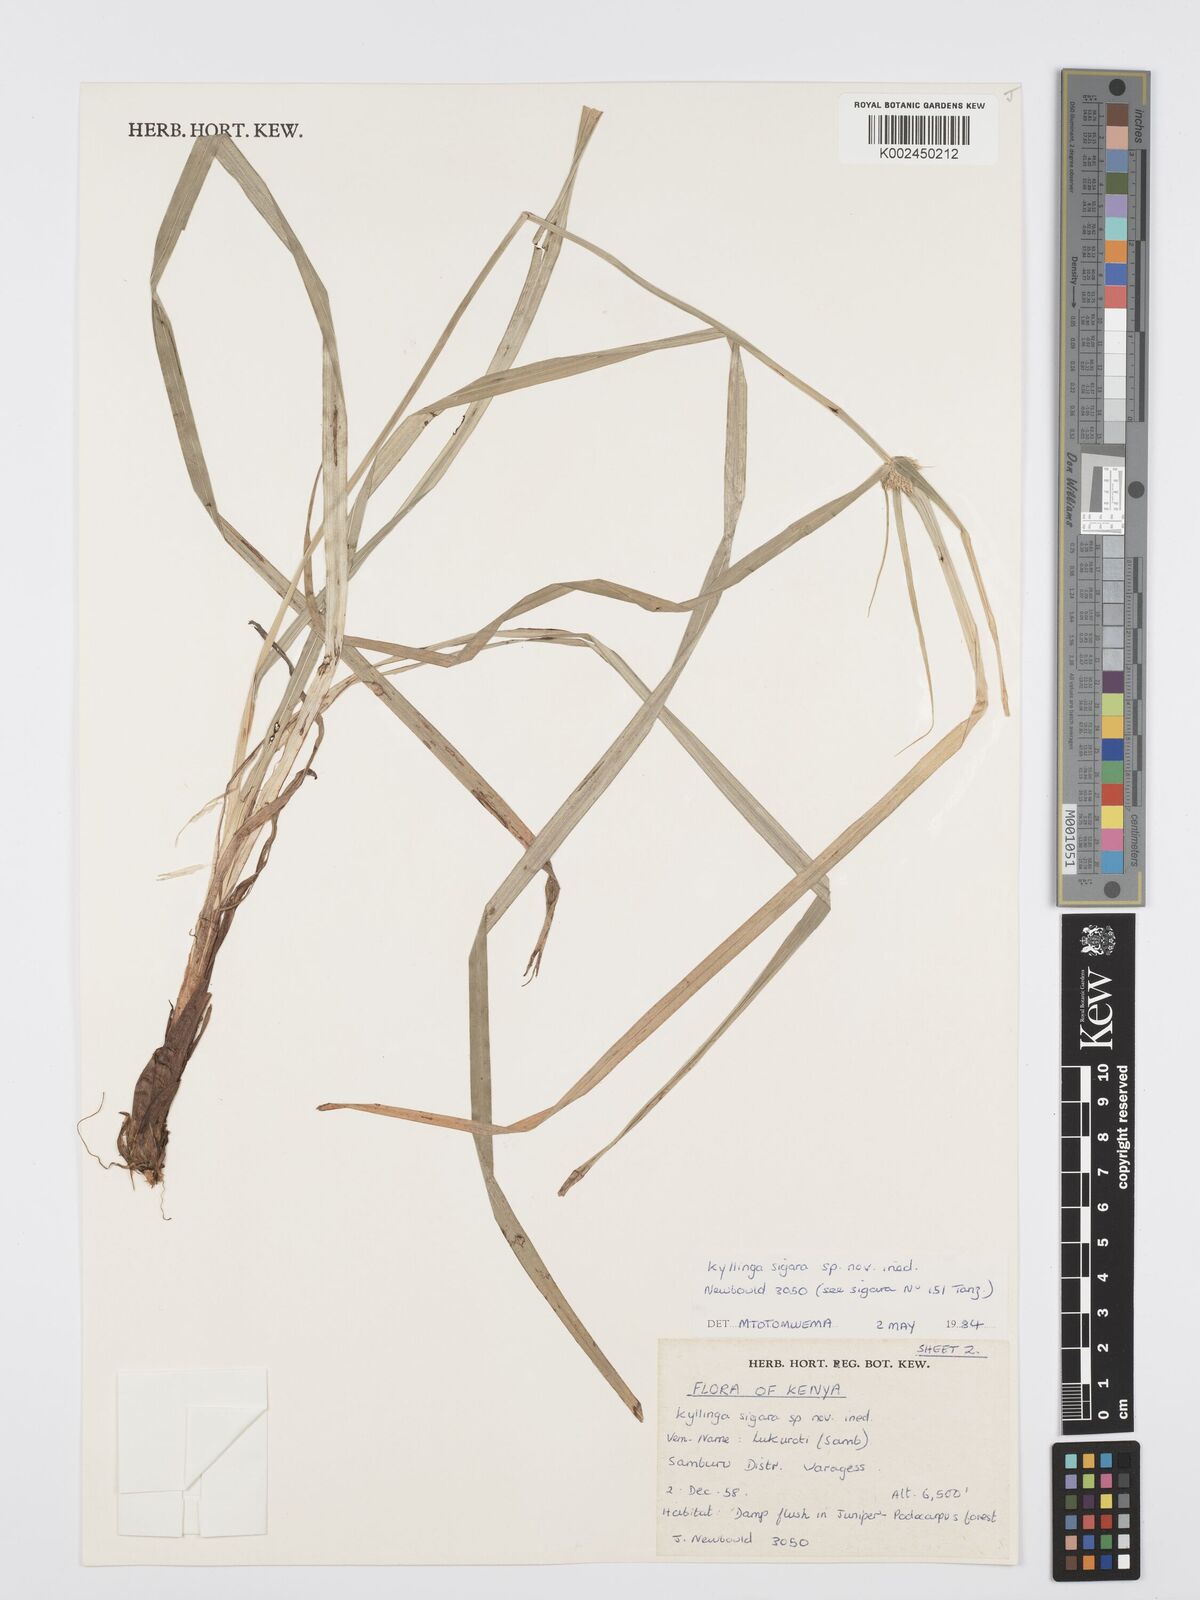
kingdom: Plantae
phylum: Tracheophyta
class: Liliopsida
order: Poales
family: Cyperaceae
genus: Cyperus
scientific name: Cyperus
